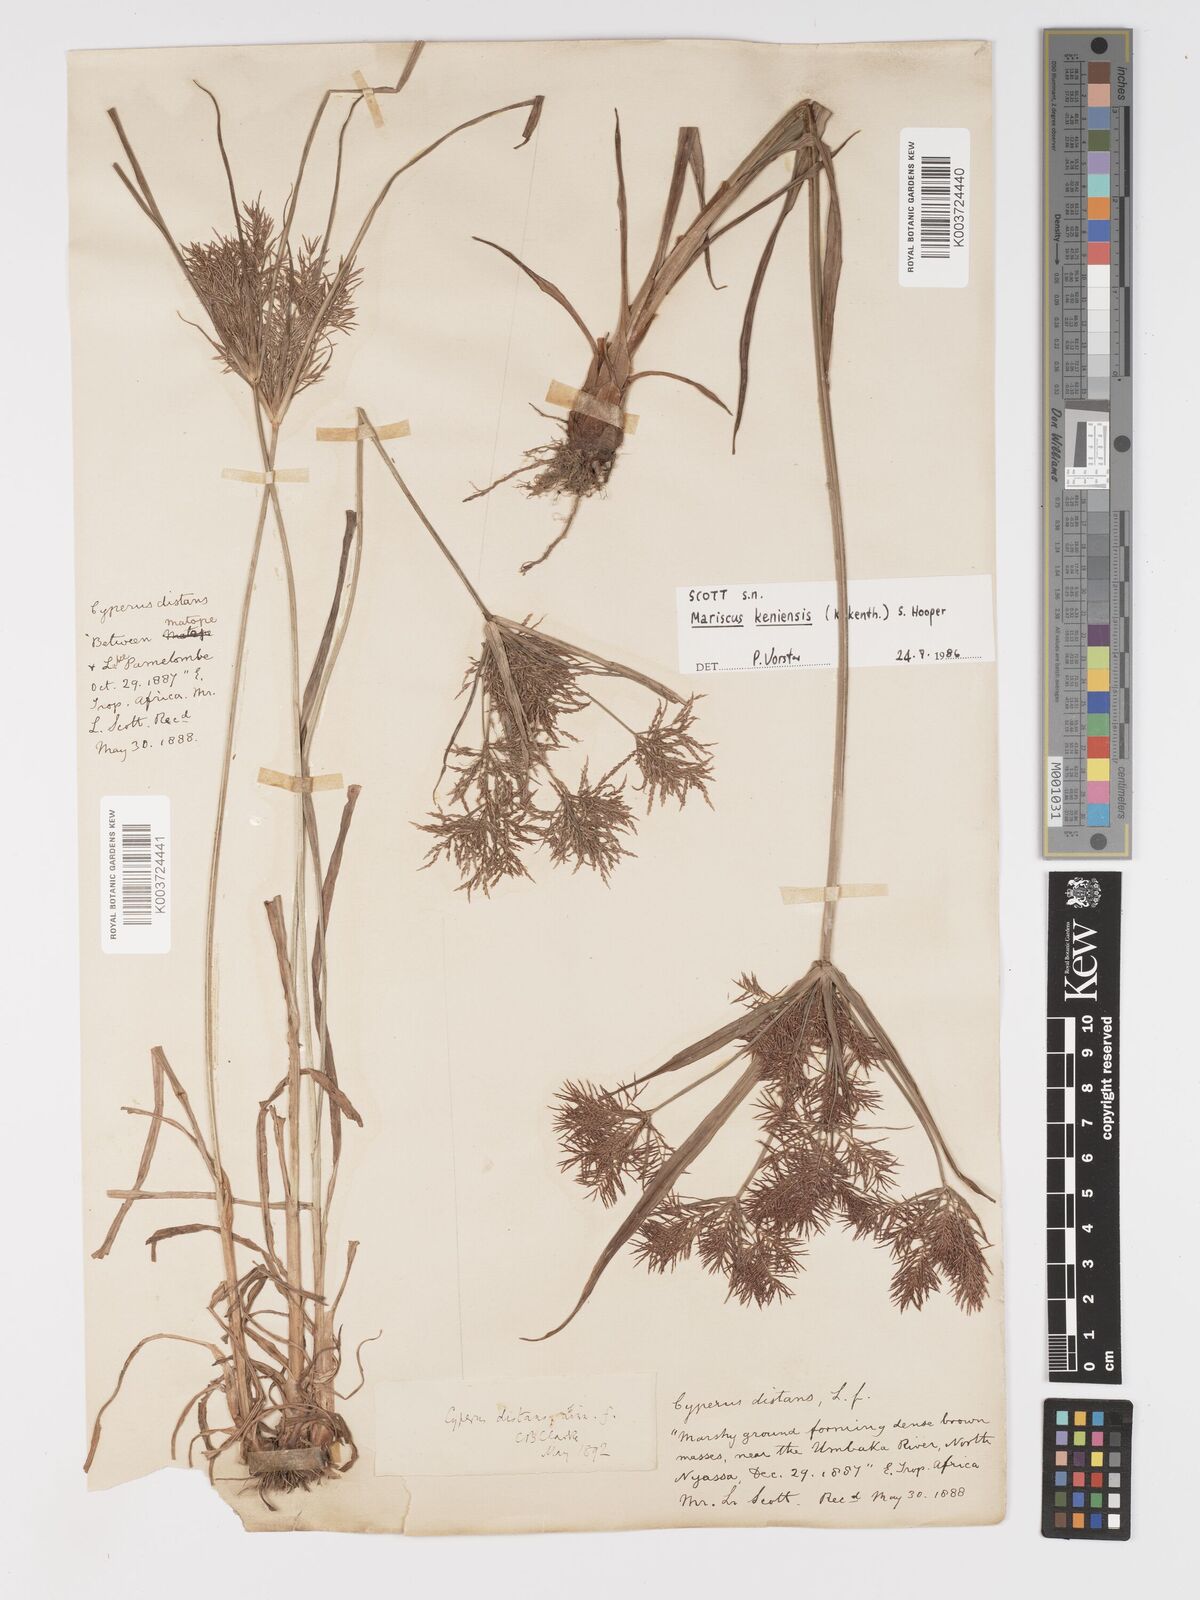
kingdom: Plantae
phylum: Tracheophyta
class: Liliopsida
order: Poales
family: Cyperaceae
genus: Cyperus
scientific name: Cyperus
